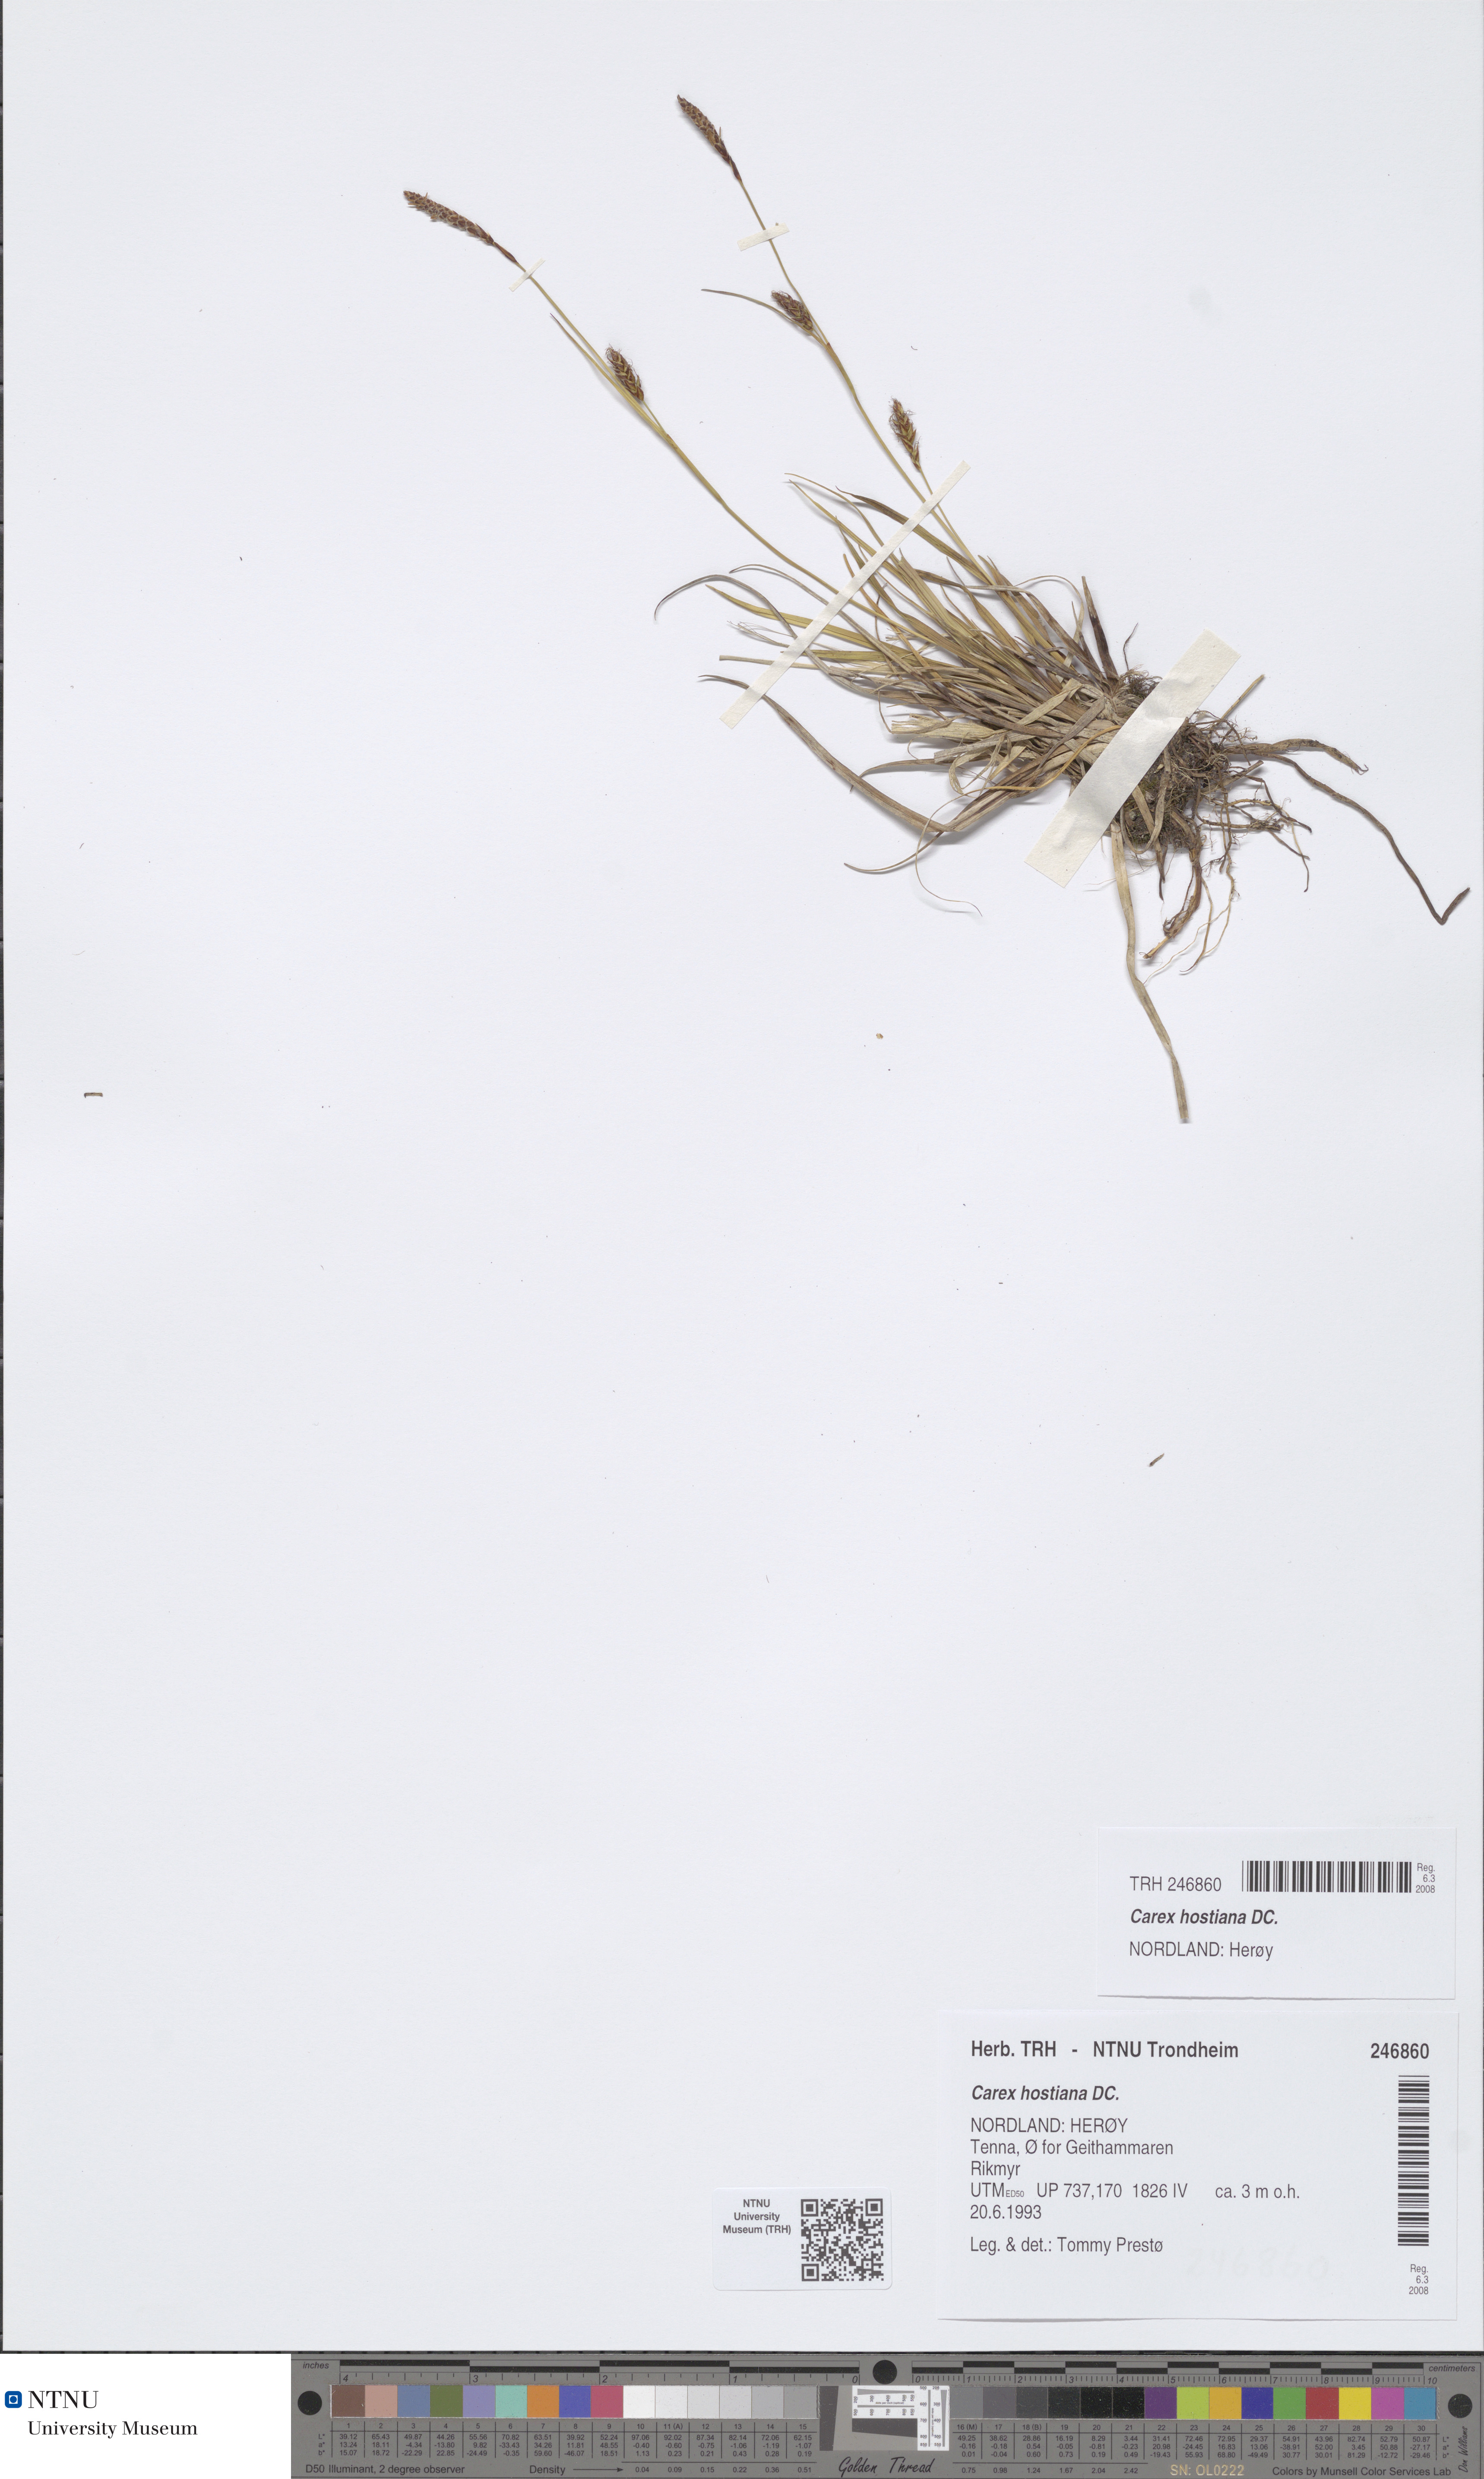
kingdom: Plantae
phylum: Tracheophyta
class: Liliopsida
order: Poales
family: Cyperaceae
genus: Carex
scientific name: Carex hostiana
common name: Tawny sedge
